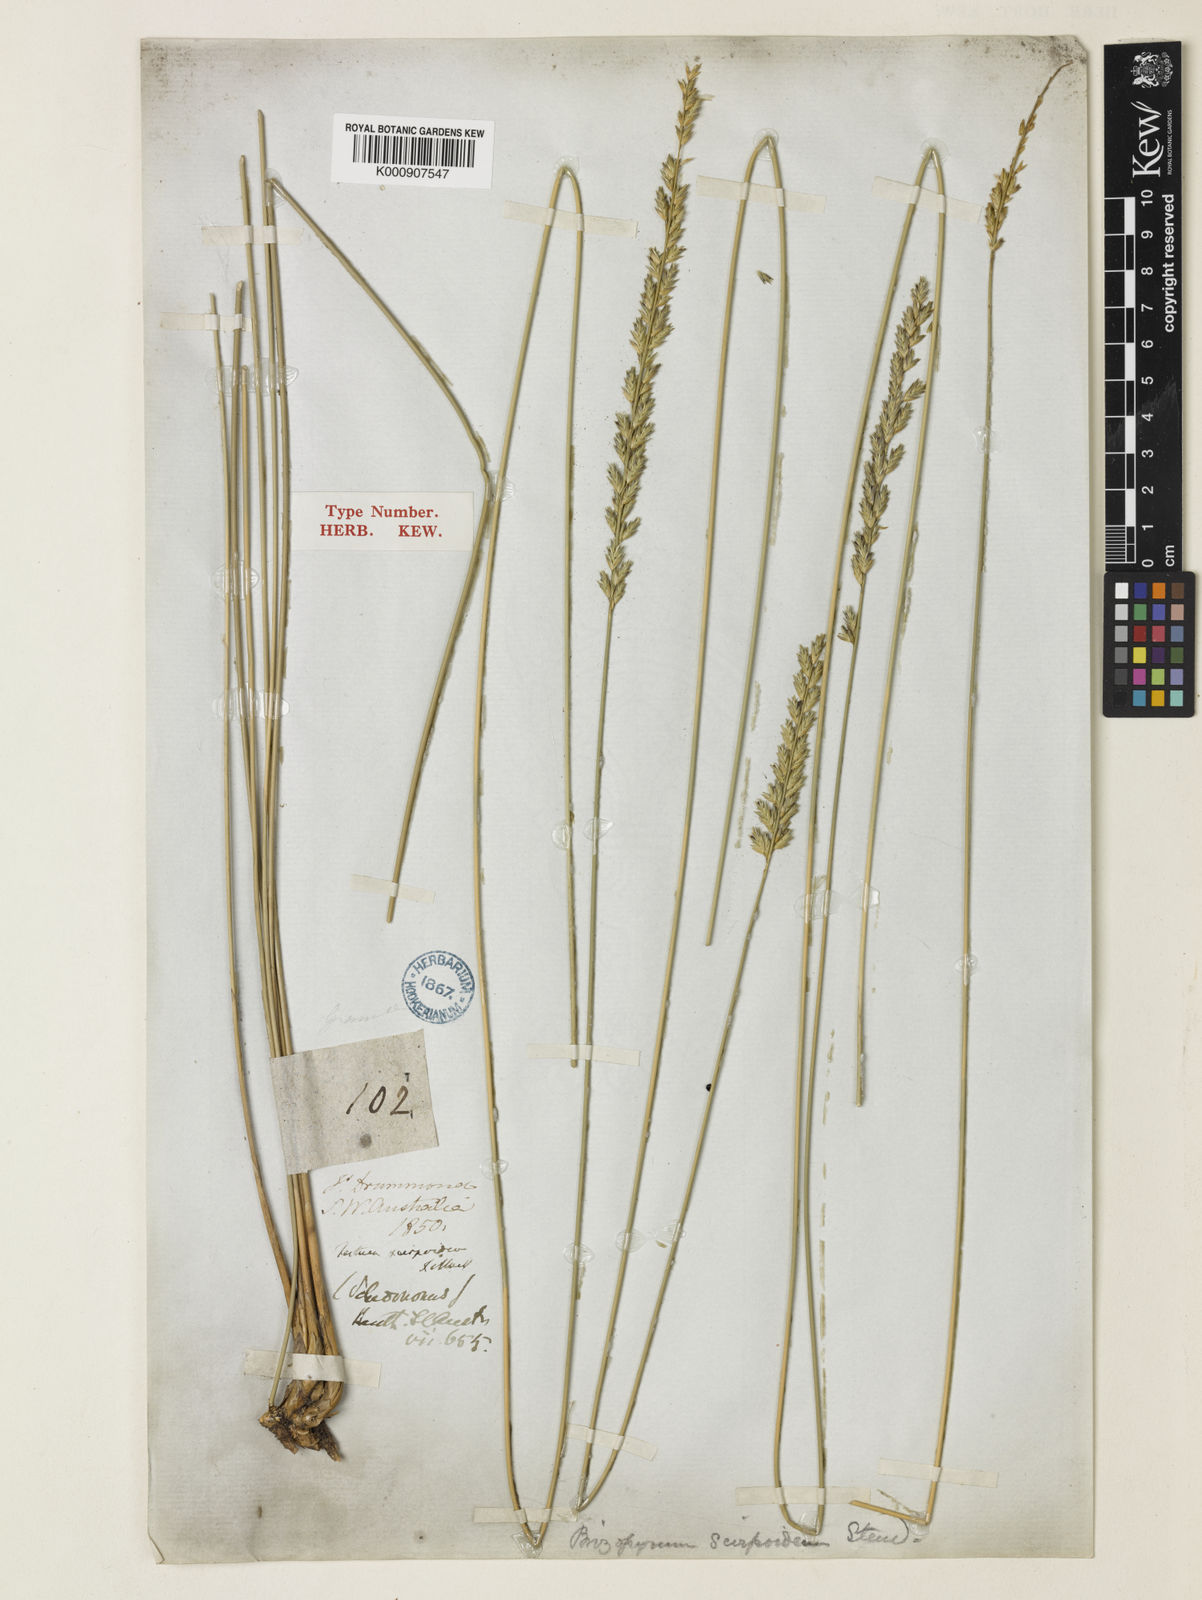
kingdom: Plantae
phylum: Tracheophyta
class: Liliopsida
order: Poales
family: Poaceae
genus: Spartochloa
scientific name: Spartochloa scirpoidea
